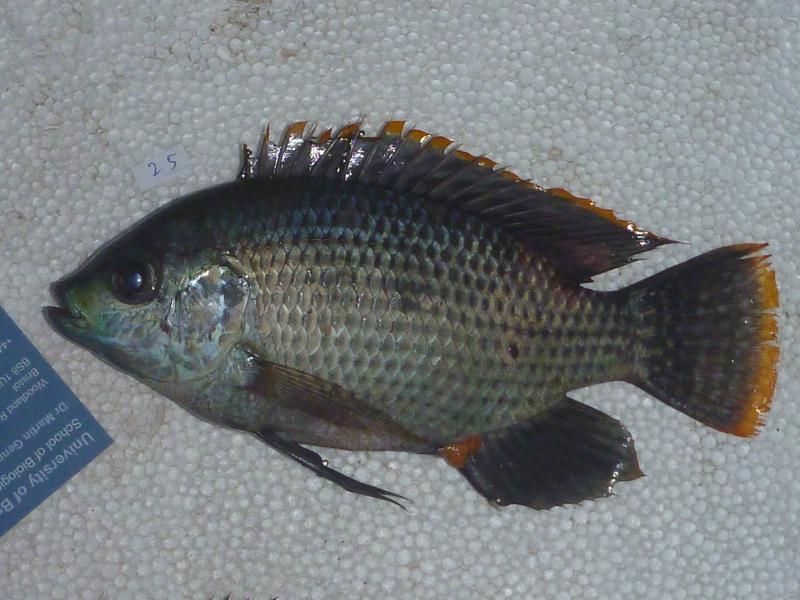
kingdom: Animalia
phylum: Chordata
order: Perciformes
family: Cichlidae
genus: Oreochromis
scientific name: Oreochromis upembae
